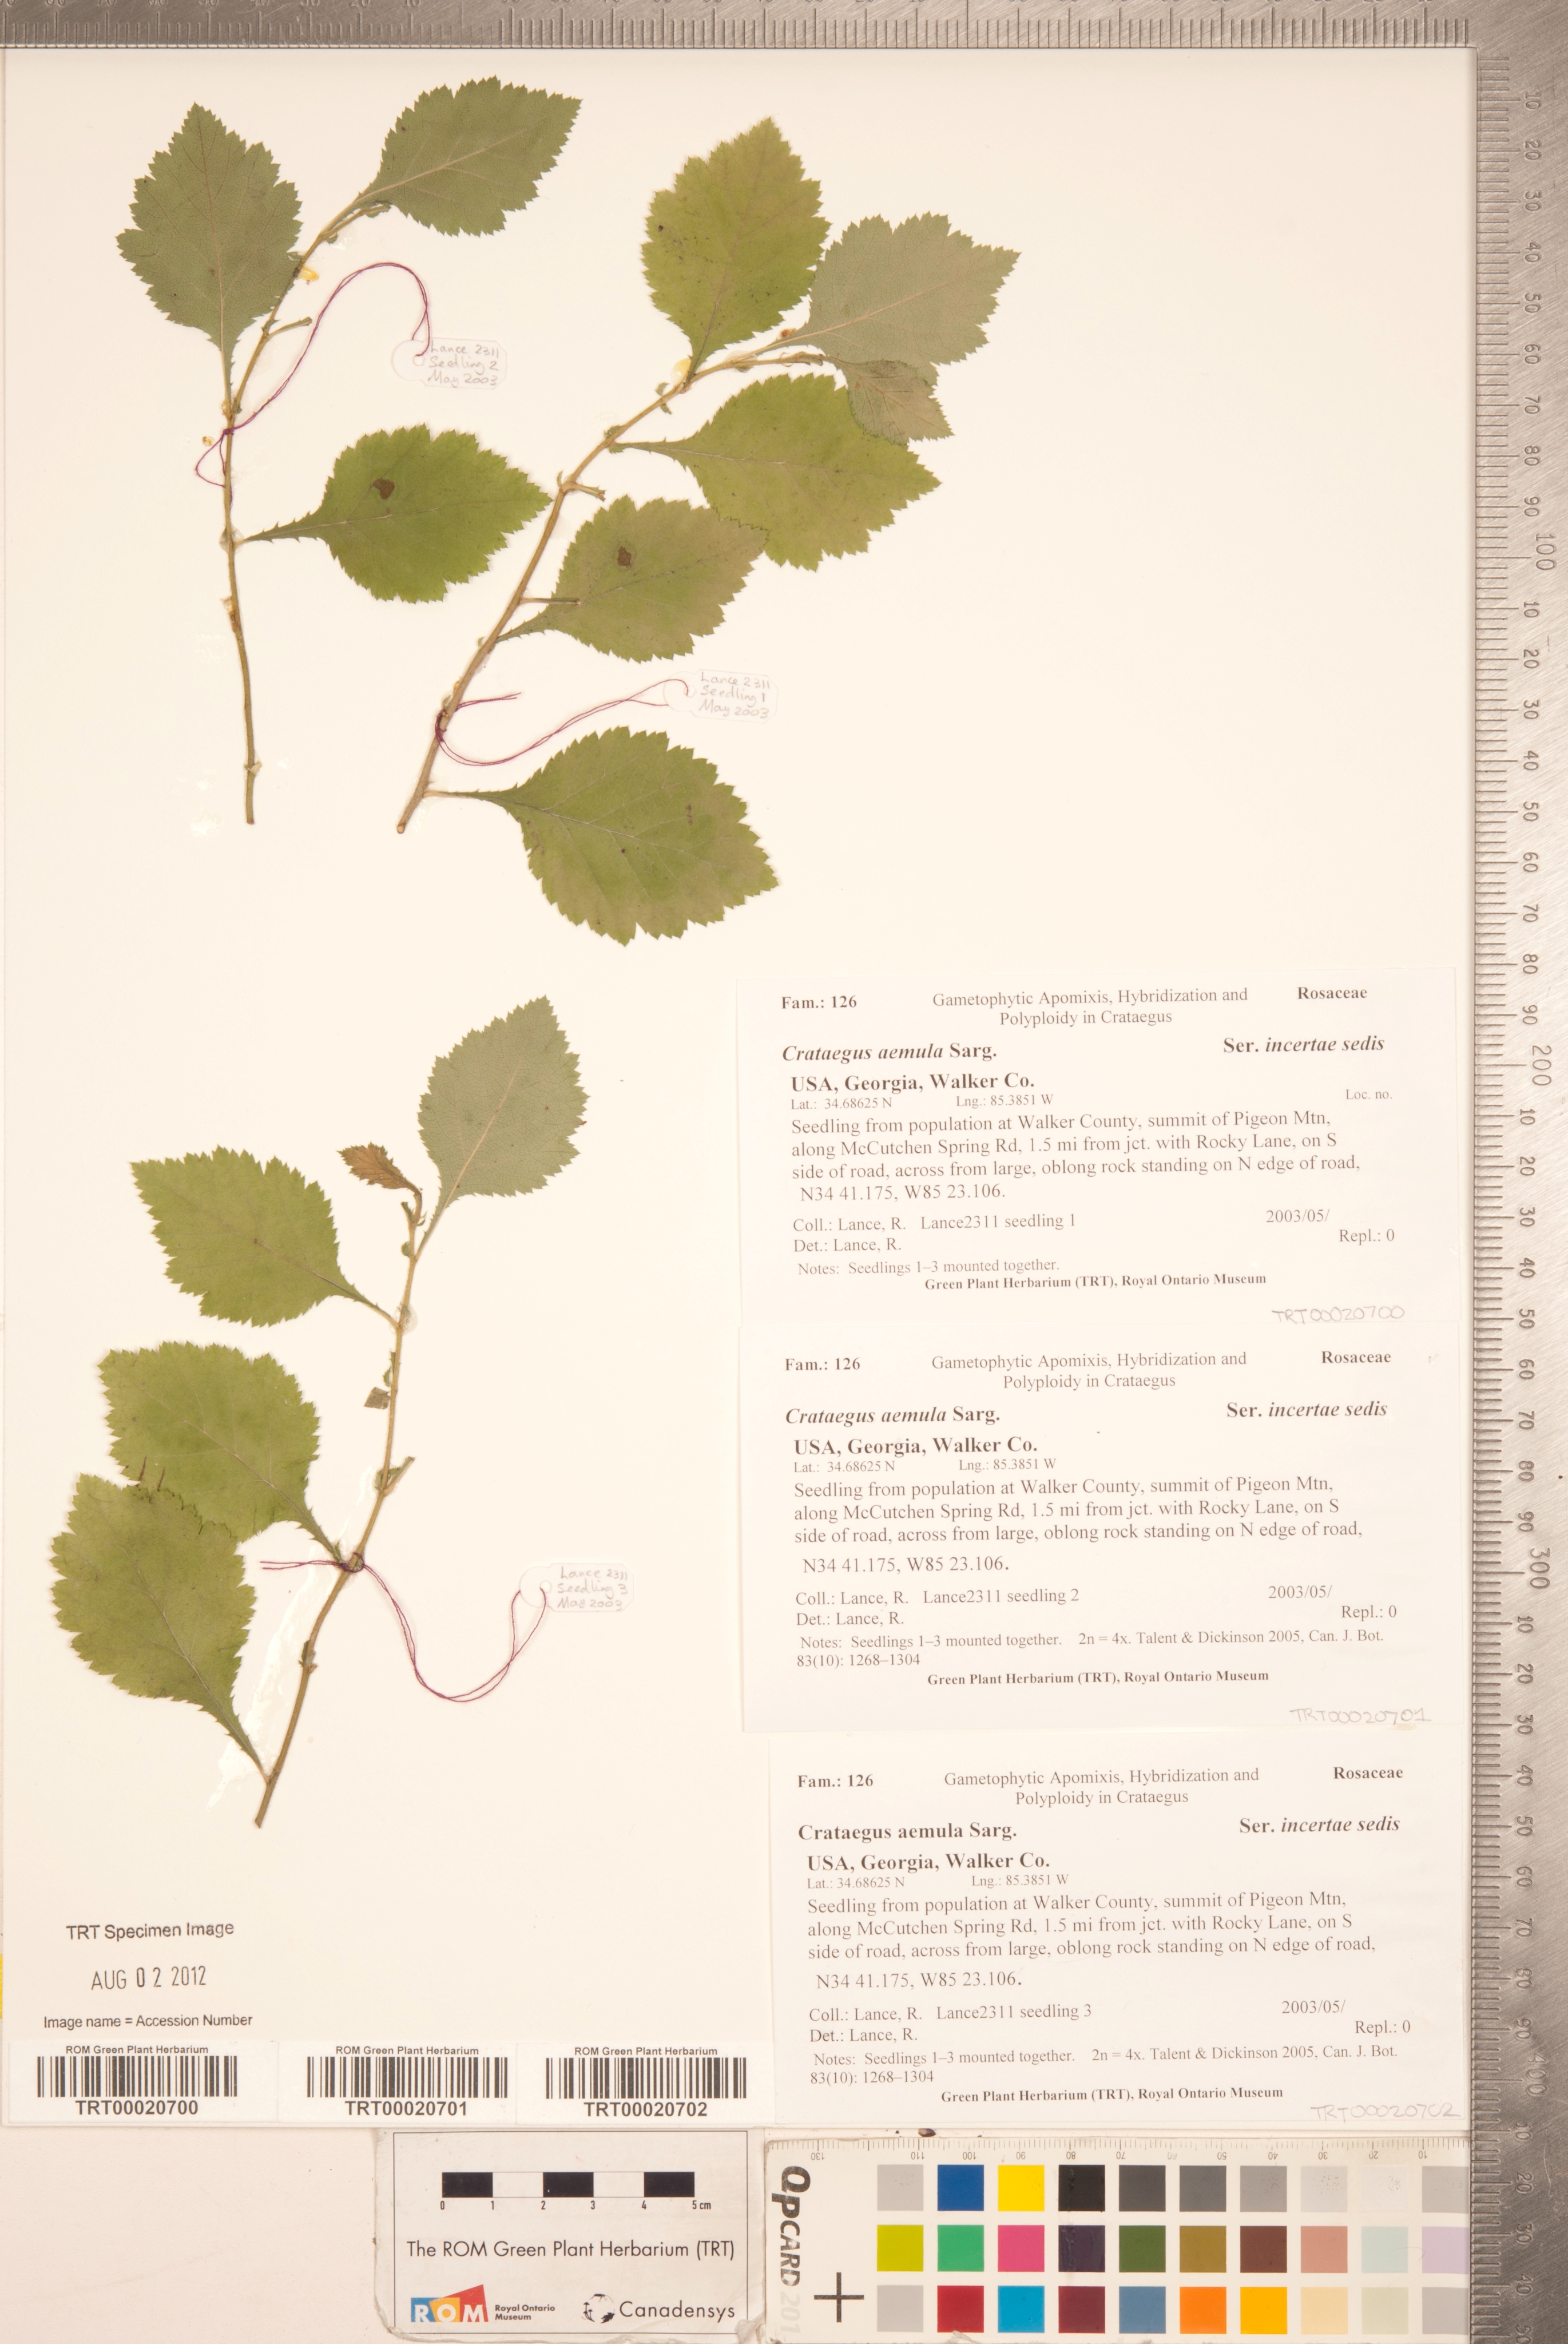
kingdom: Plantae
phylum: Tracheophyta
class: Magnoliopsida
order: Rosales
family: Rosaceae
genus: Crataegus
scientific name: Crataegus iracunda
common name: Stolon-bearing hawthorn
